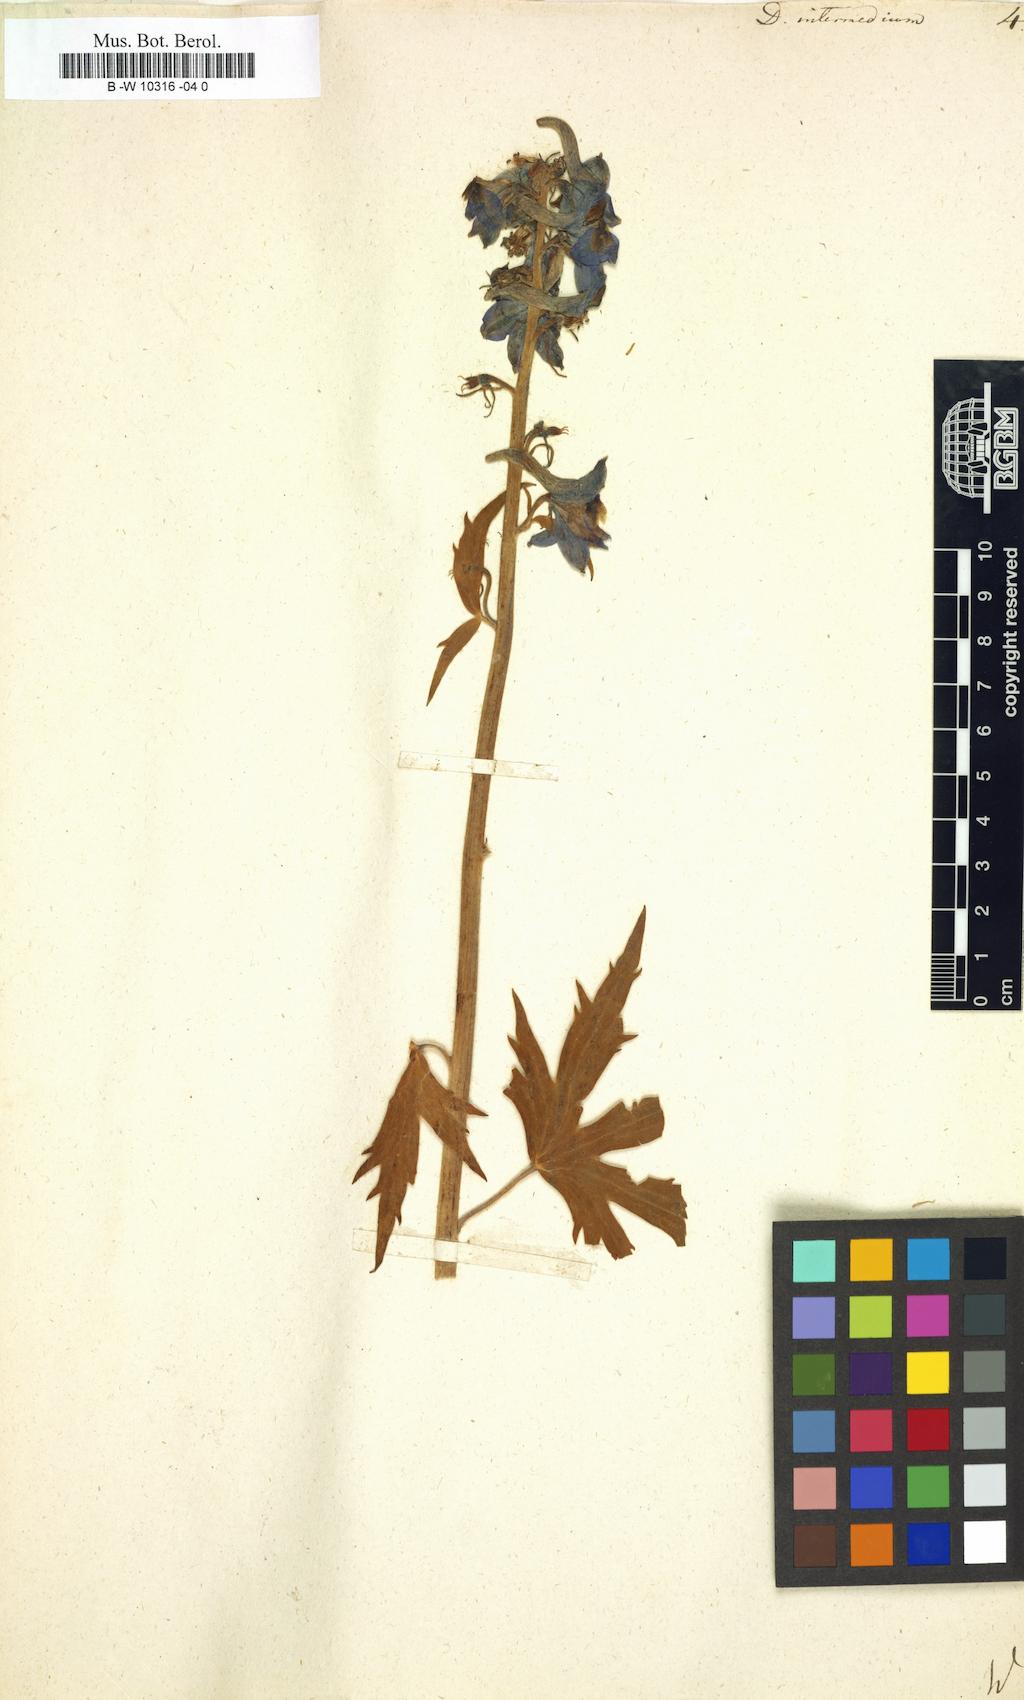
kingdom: Plantae
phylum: Tracheophyta
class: Magnoliopsida
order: Ranunculales
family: Ranunculaceae
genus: Delphinium
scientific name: Delphinium elatum
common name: Candle larkspur
